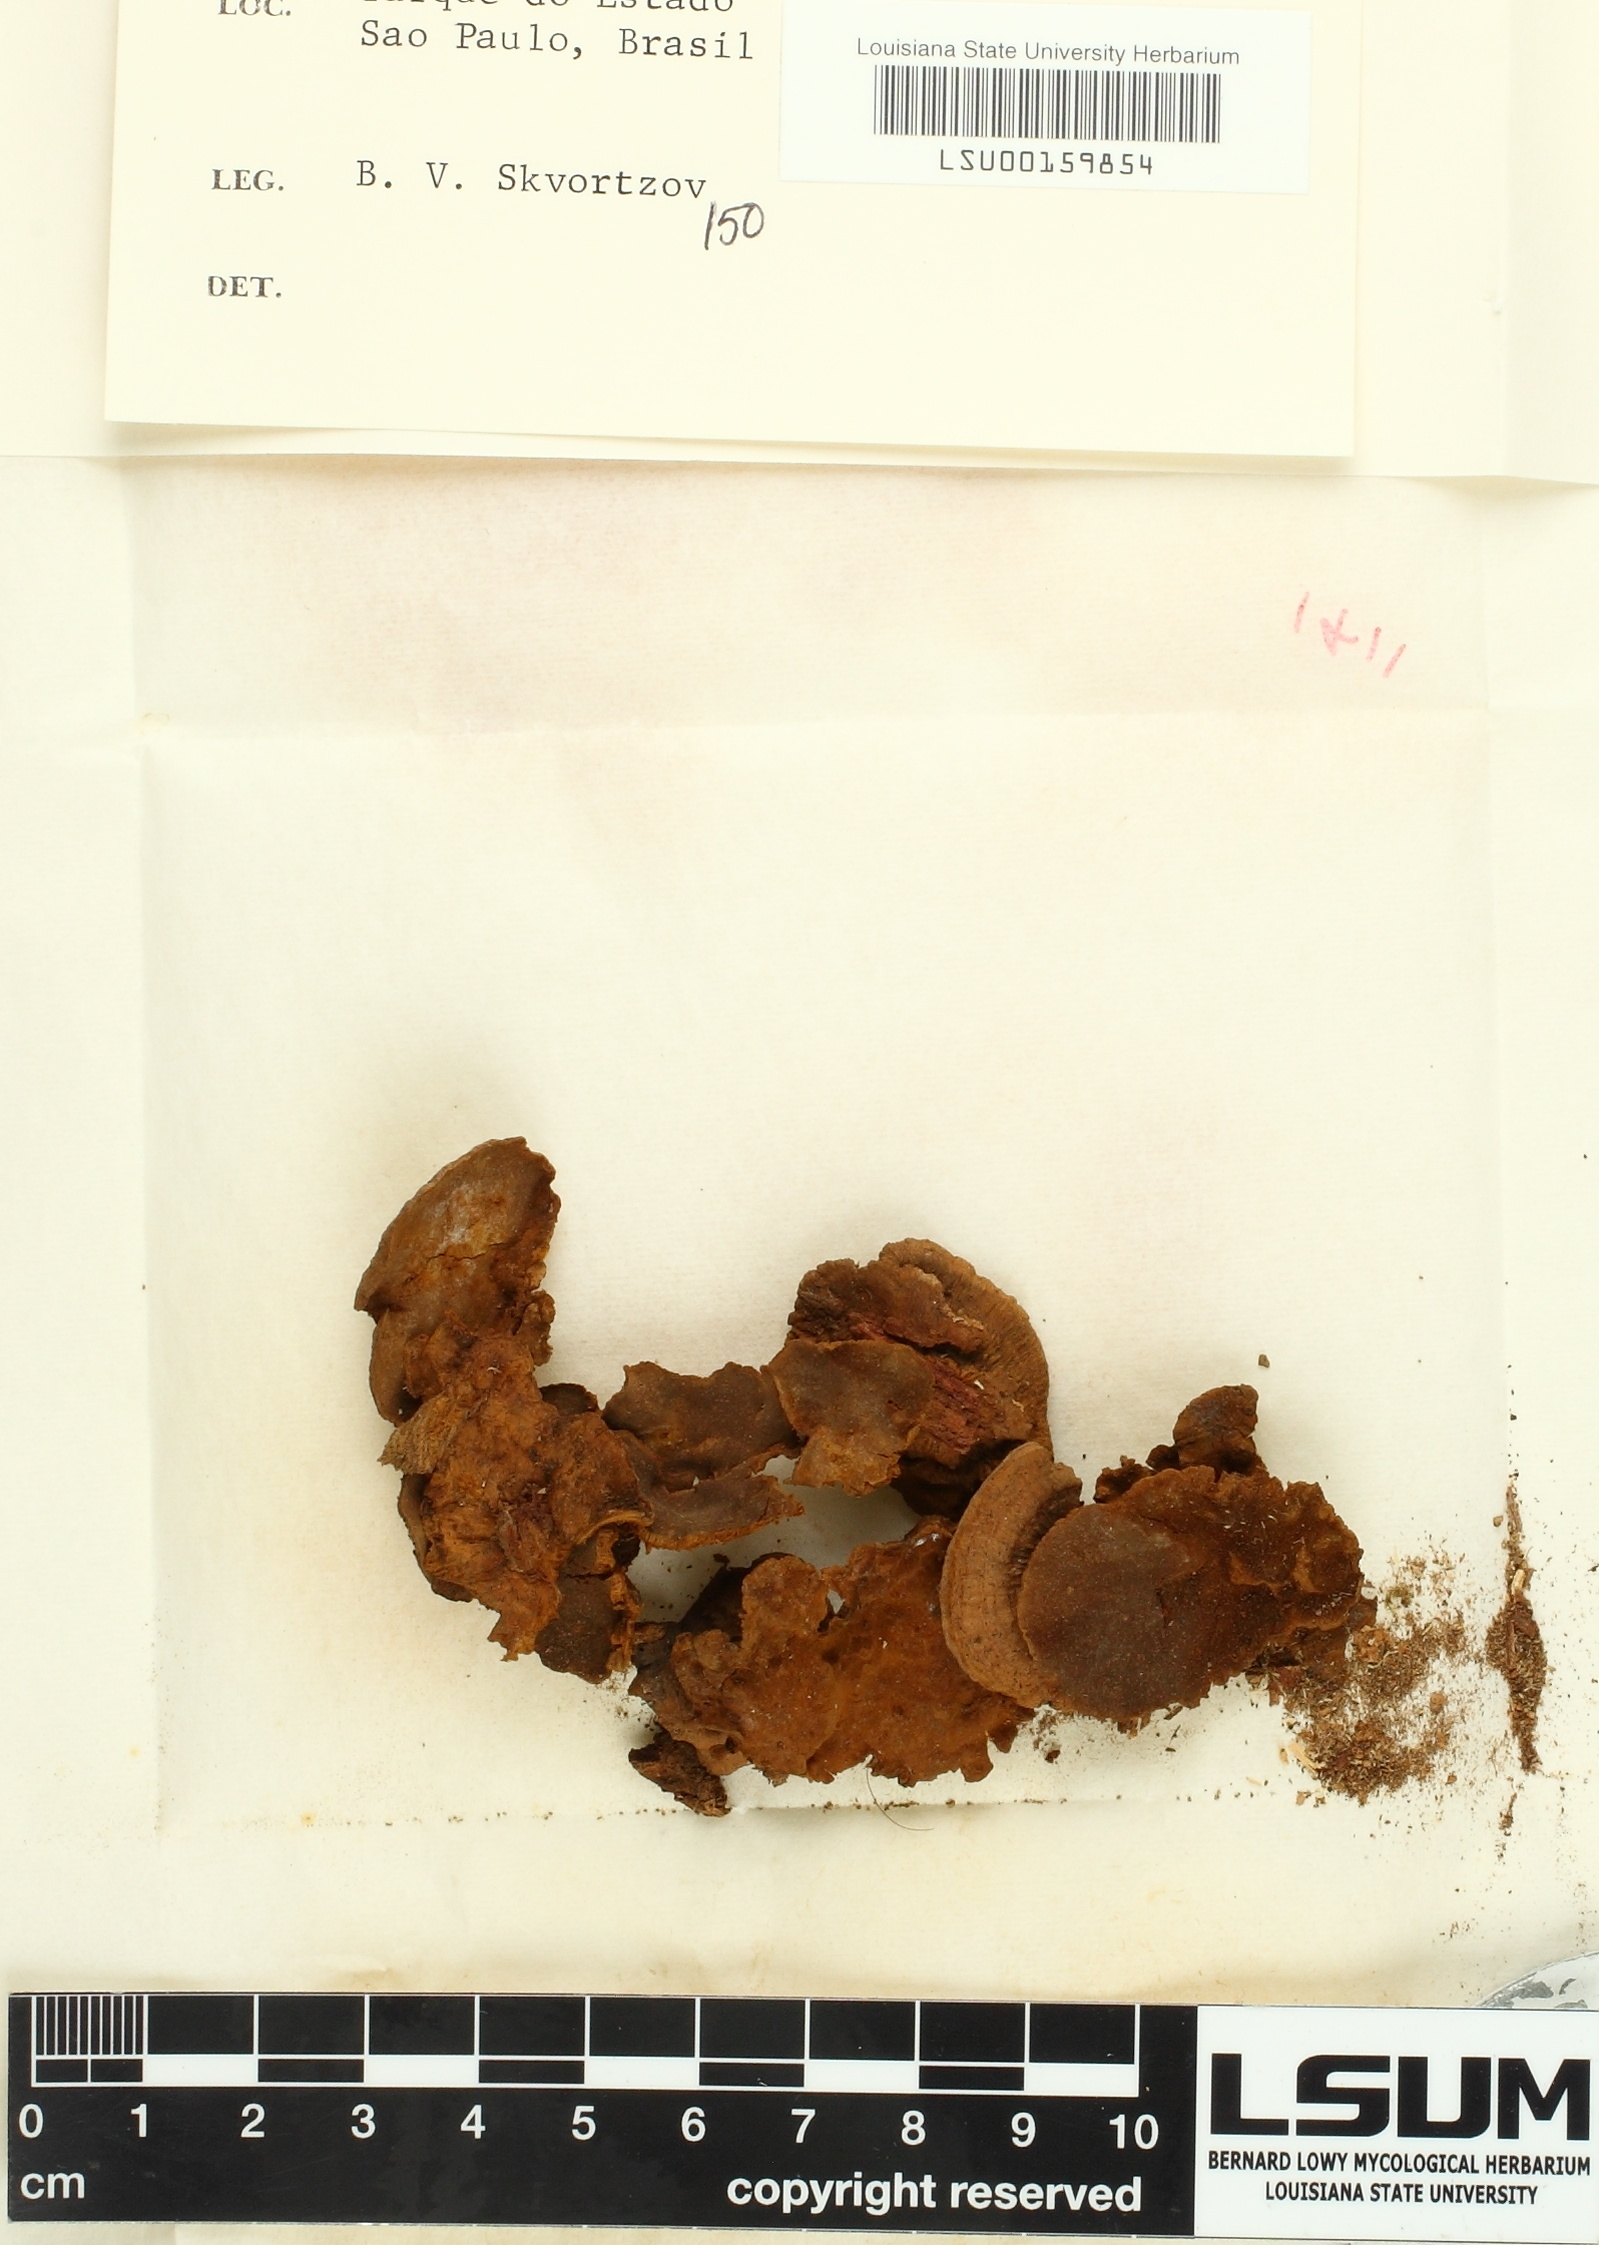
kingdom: Fungi
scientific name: Fungi
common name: Fungi
